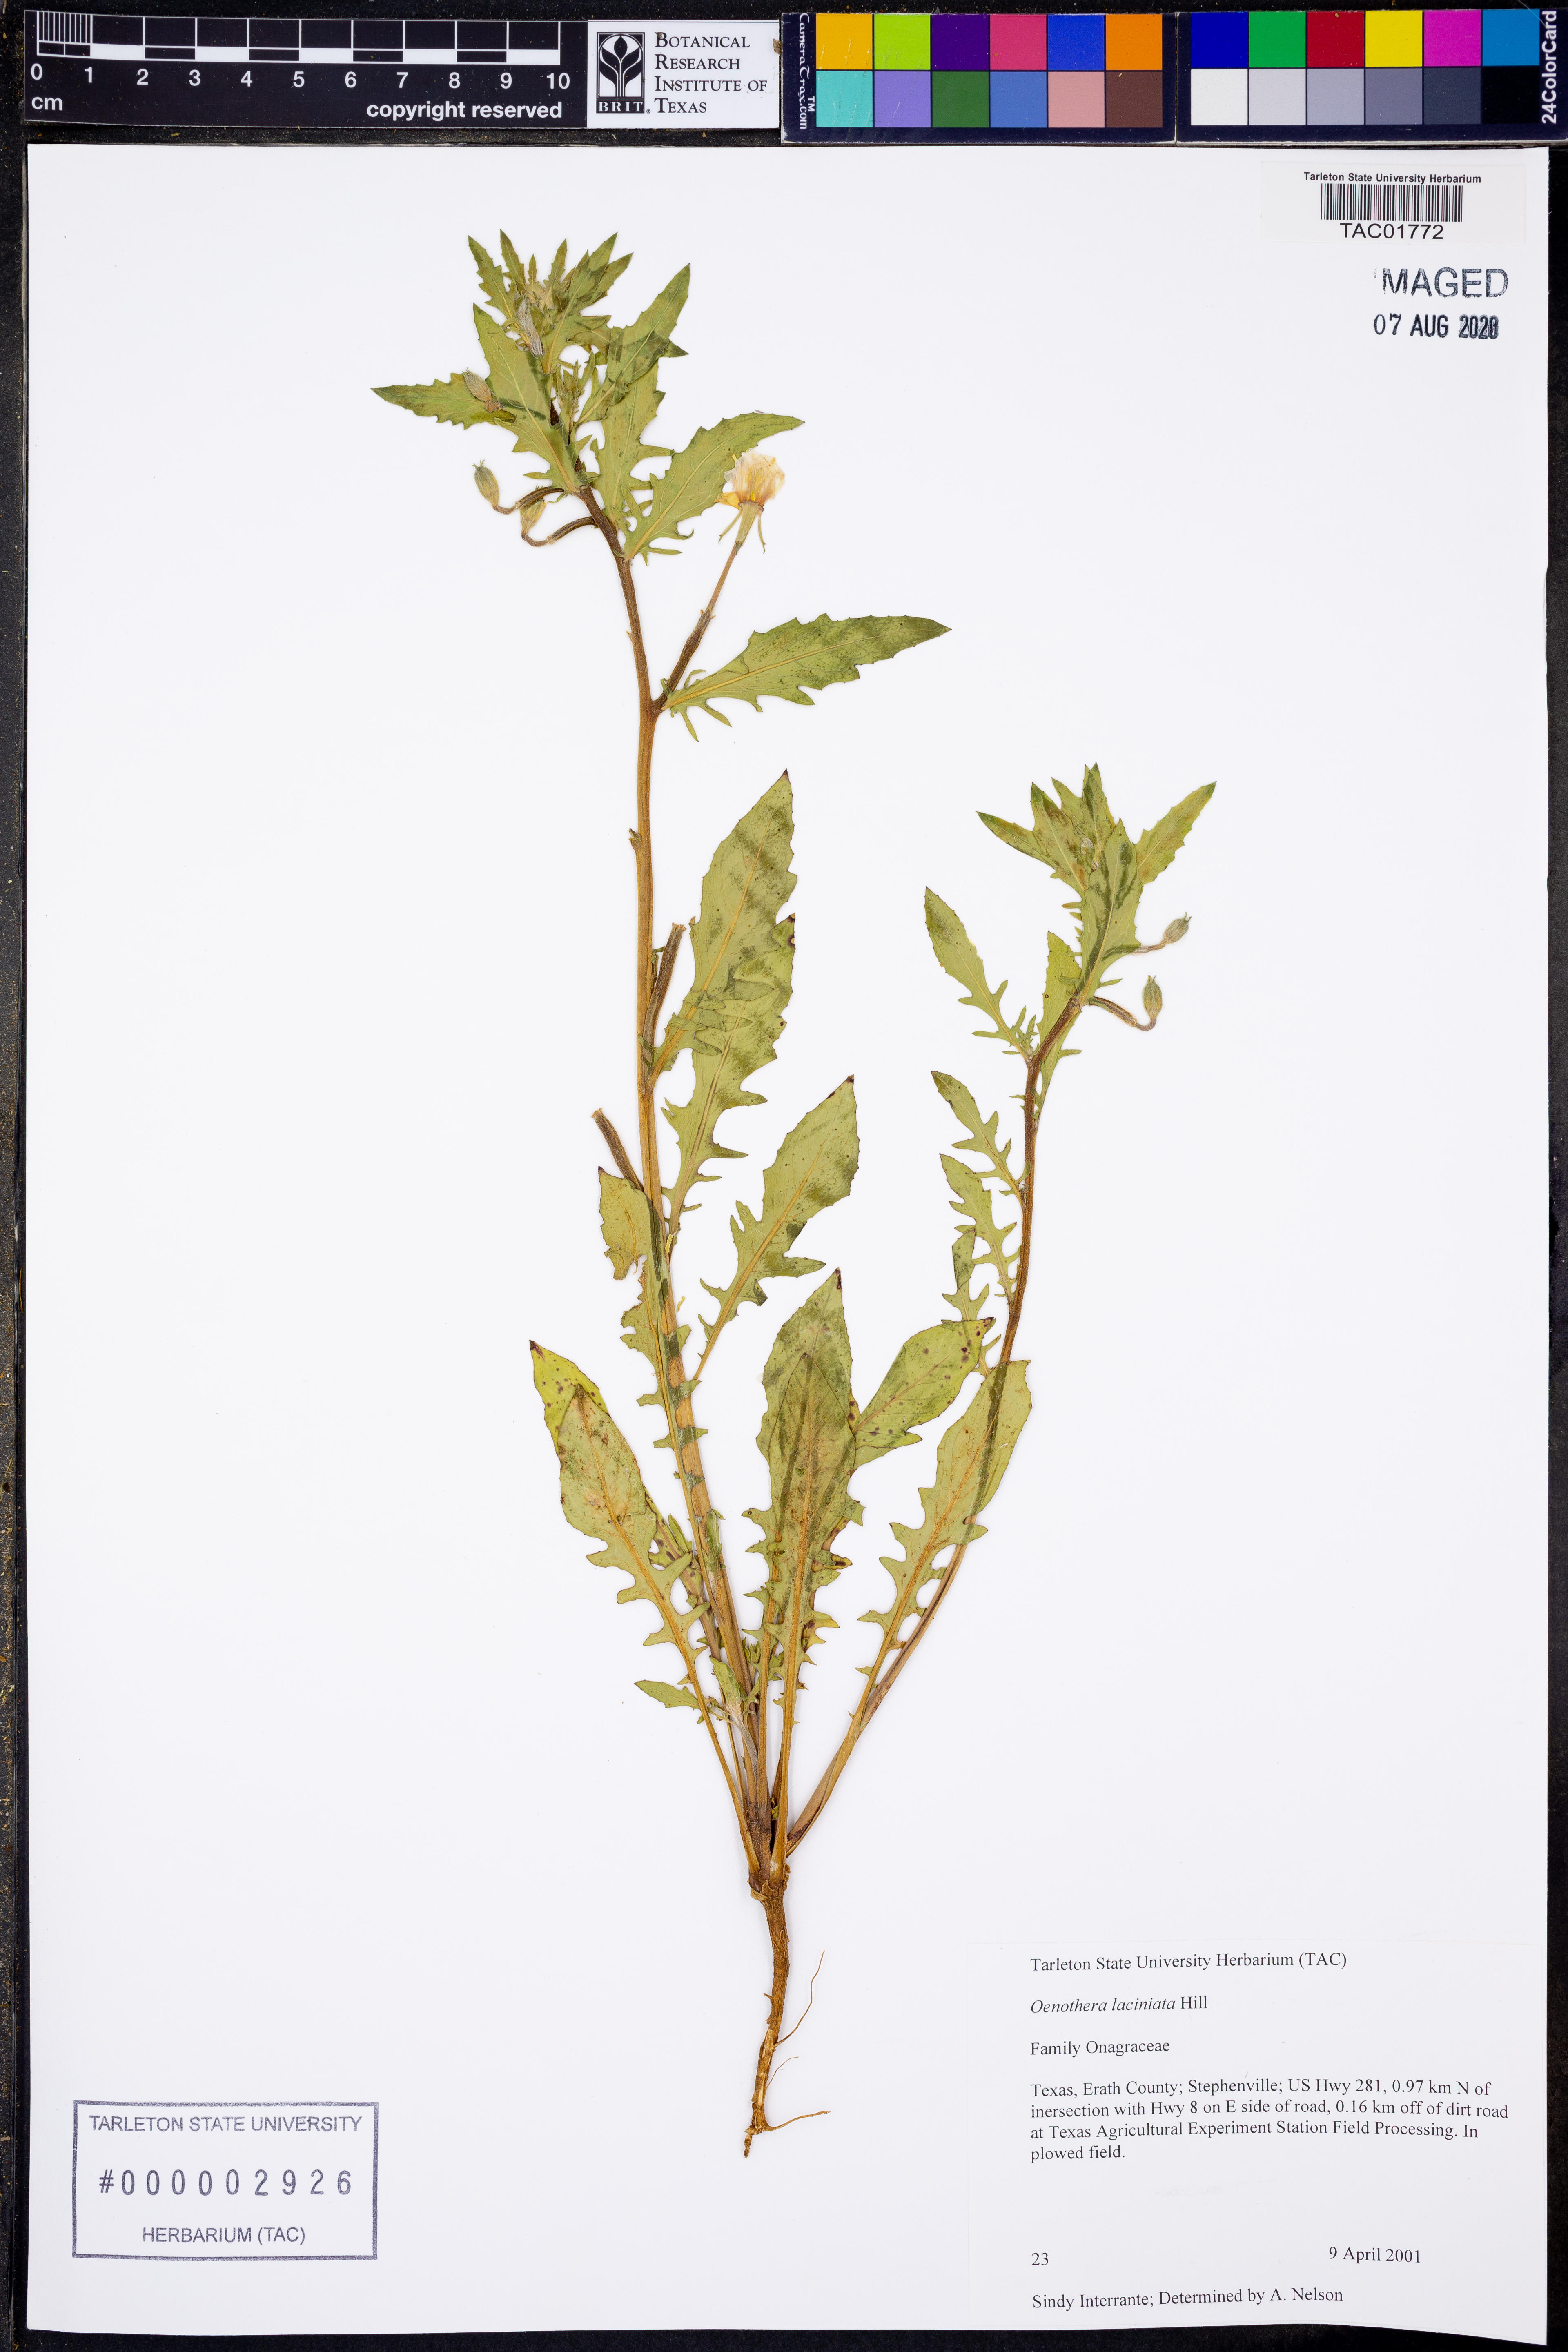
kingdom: Plantae
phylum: Tracheophyta
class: Magnoliopsida
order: Myrtales
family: Onagraceae
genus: Oenothera
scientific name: Oenothera laciniata
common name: Cut-leaved evening-primrose
